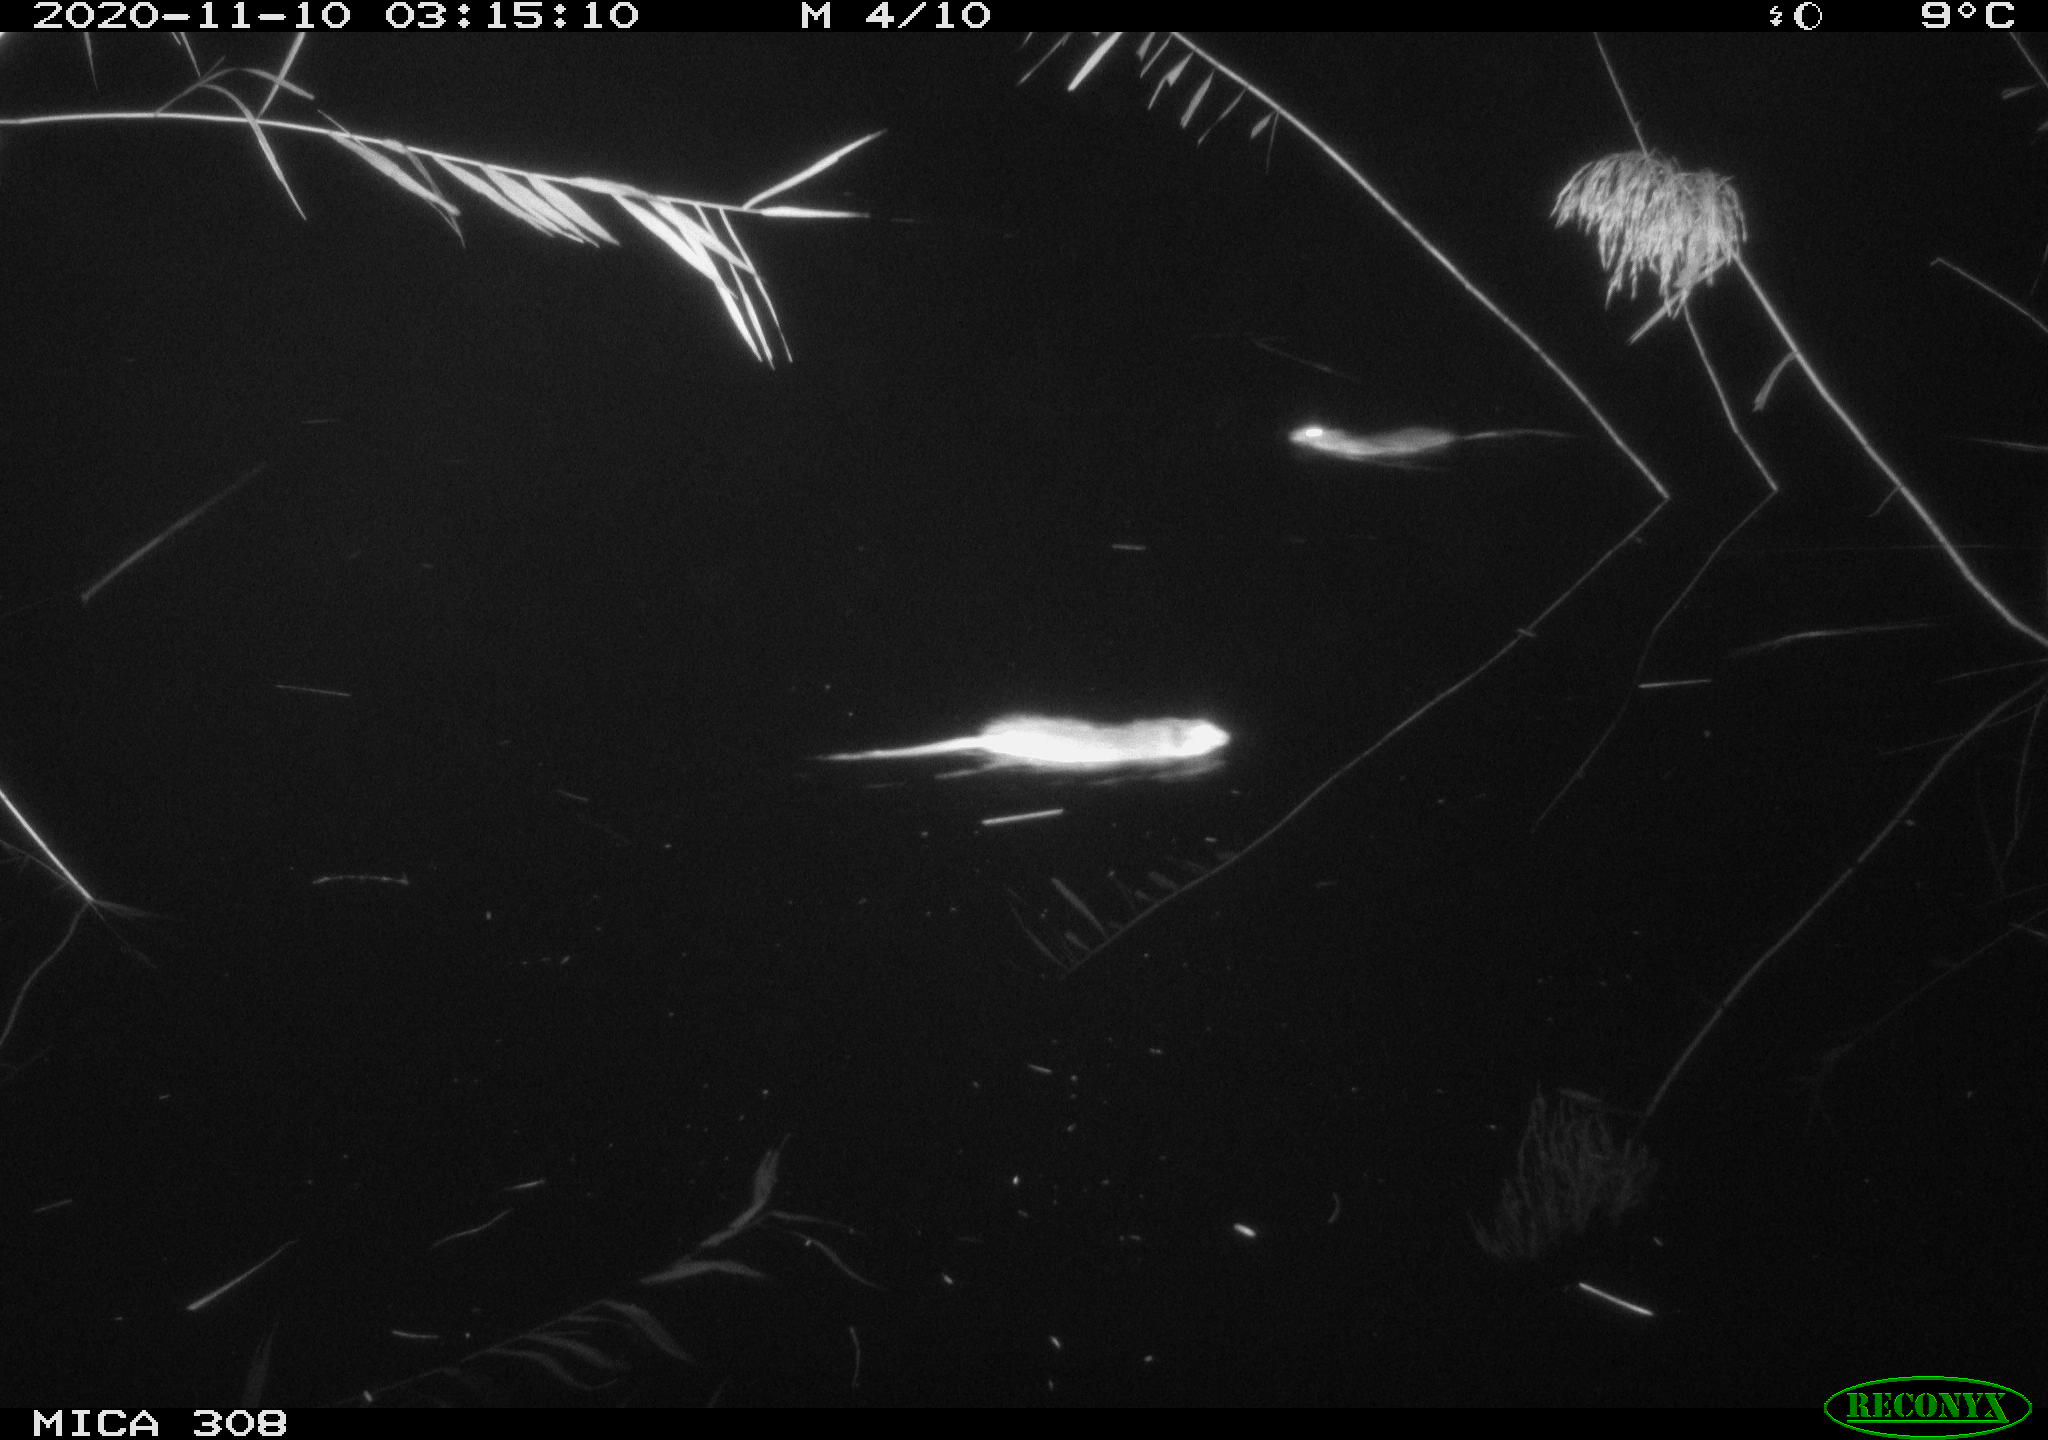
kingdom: Animalia
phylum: Chordata
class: Mammalia
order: Rodentia
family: Cricetidae
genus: Ondatra
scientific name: Ondatra zibethicus
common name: Muskrat
